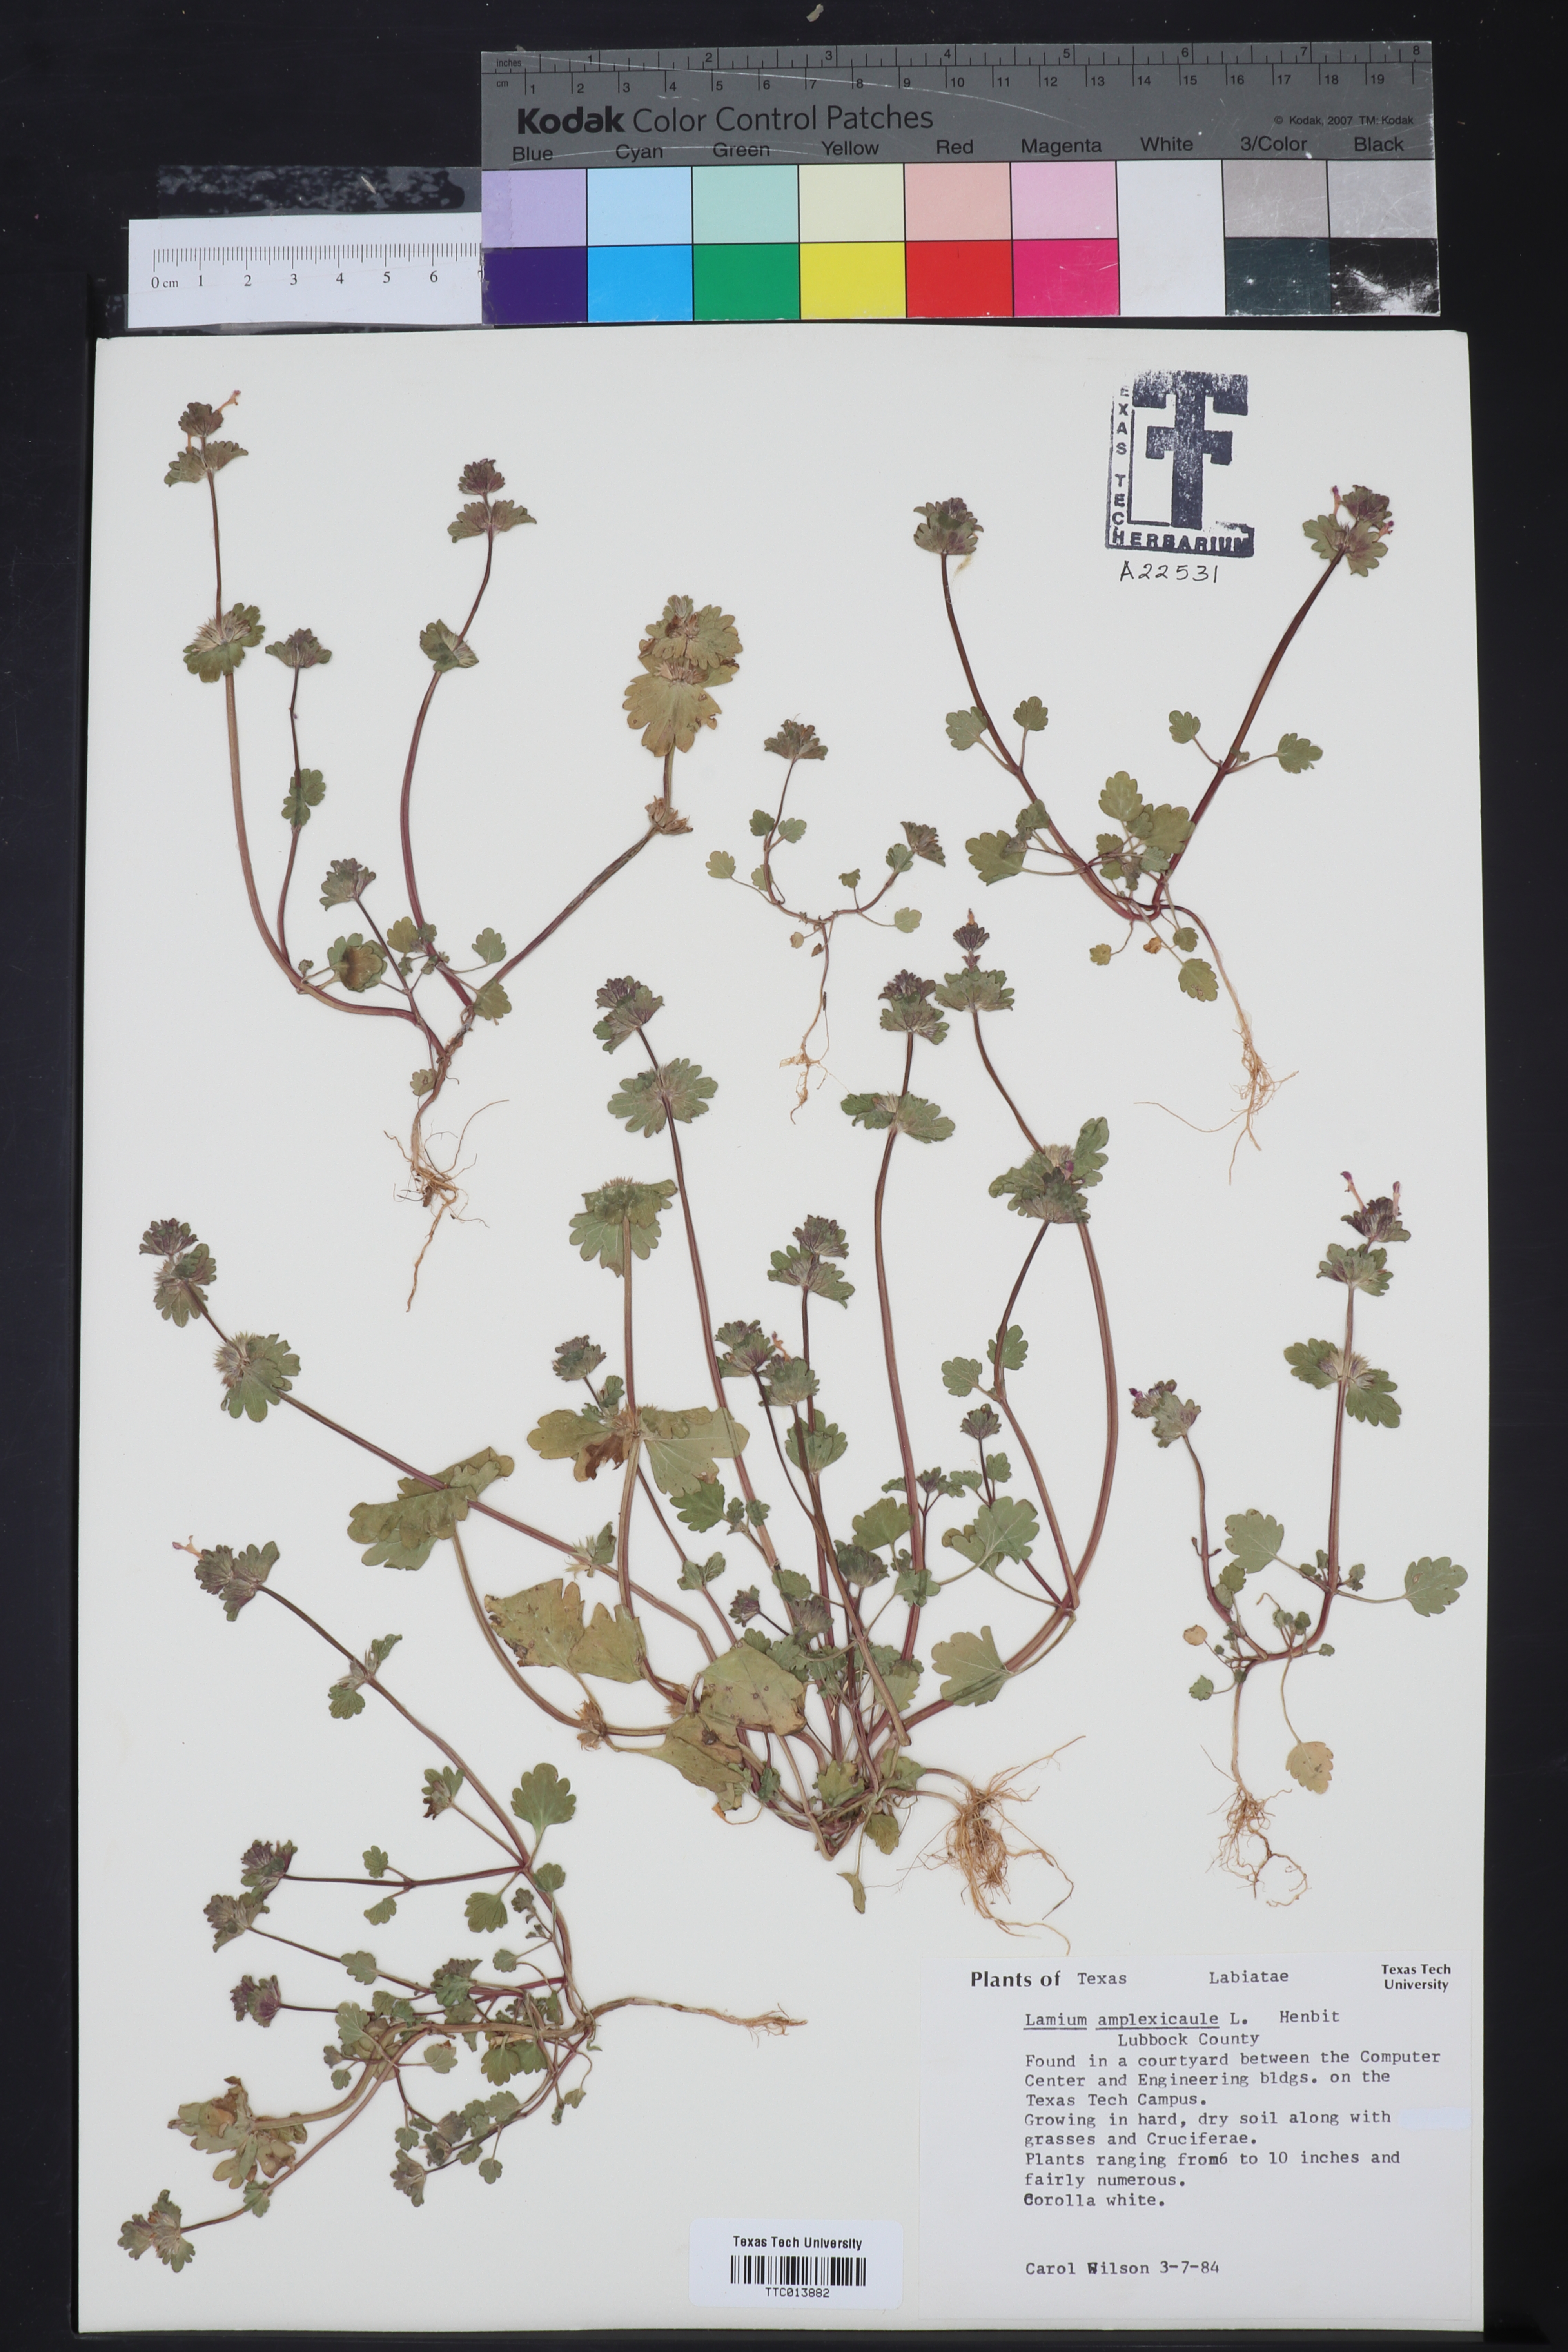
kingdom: Plantae
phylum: Tracheophyta
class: Magnoliopsida
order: Lamiales
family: Lamiaceae
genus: Lamium
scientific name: Lamium amplexicaule
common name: Henbit dead-nettle
